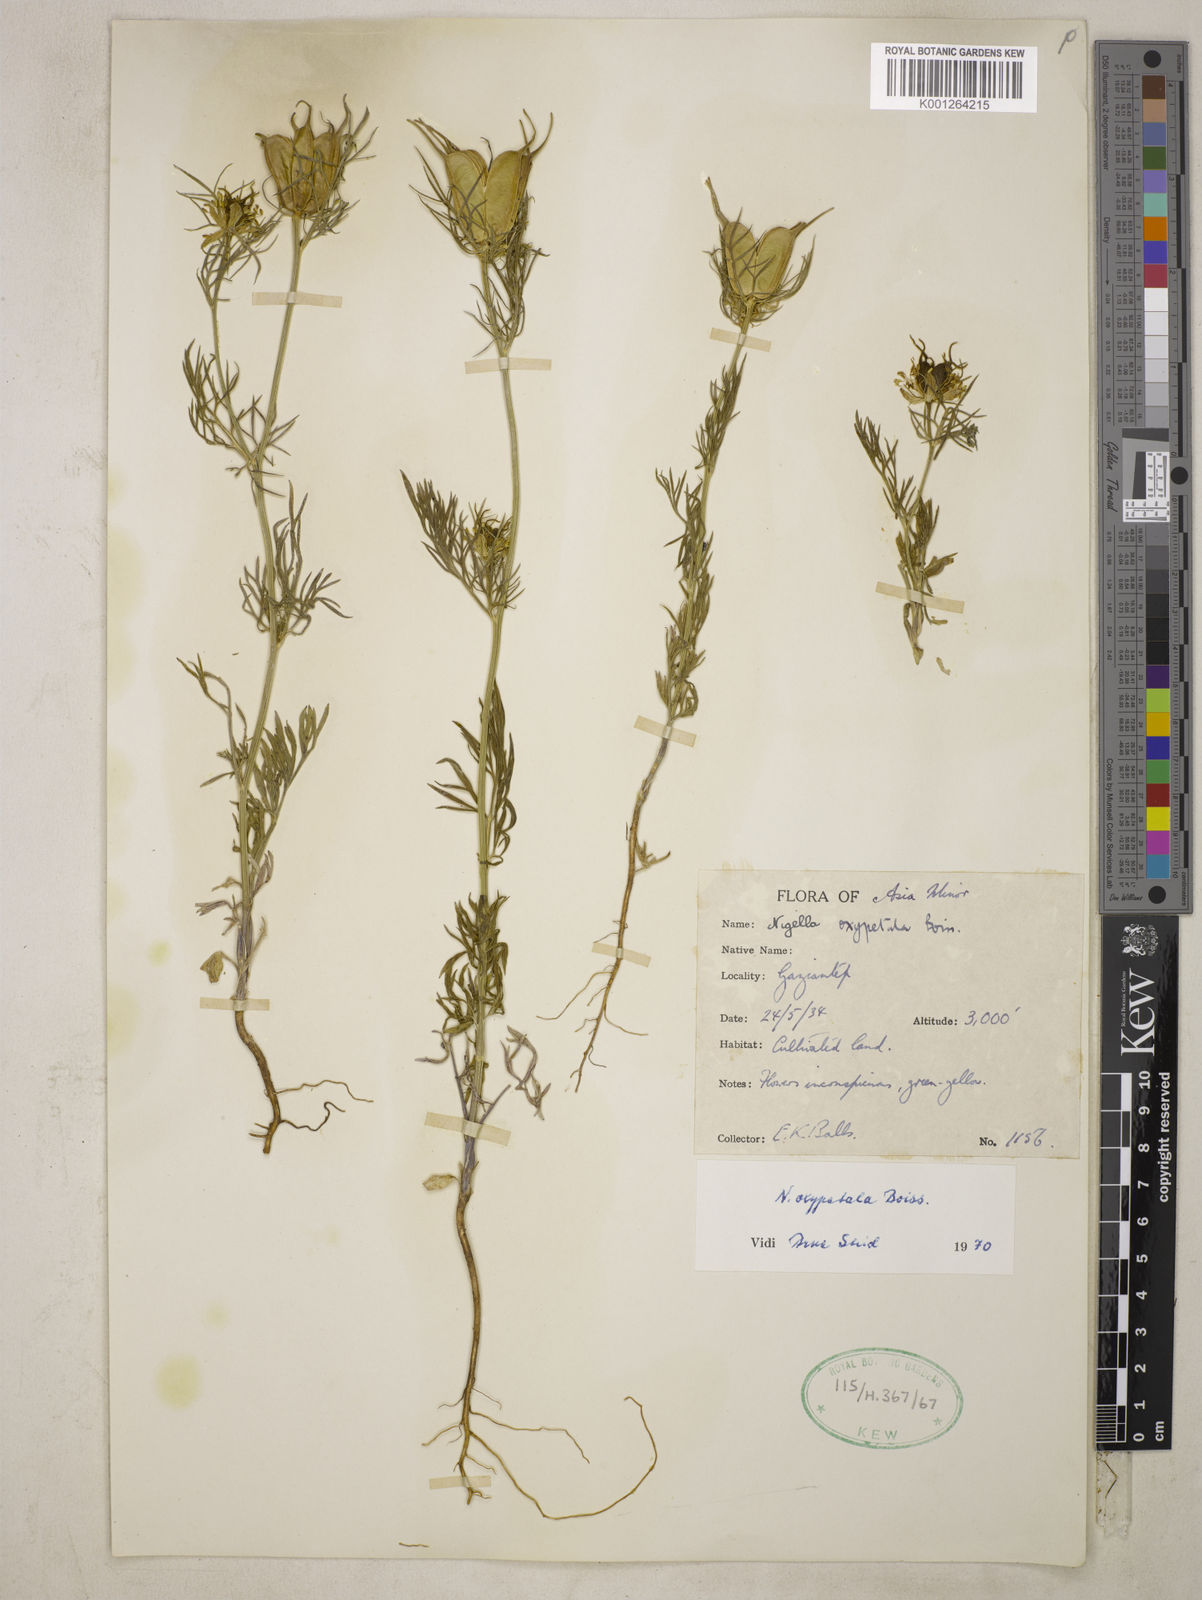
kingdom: Plantae
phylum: Tracheophyta
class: Magnoliopsida
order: Ranunculales
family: Ranunculaceae
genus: Nigella
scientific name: Nigella oxypetala
